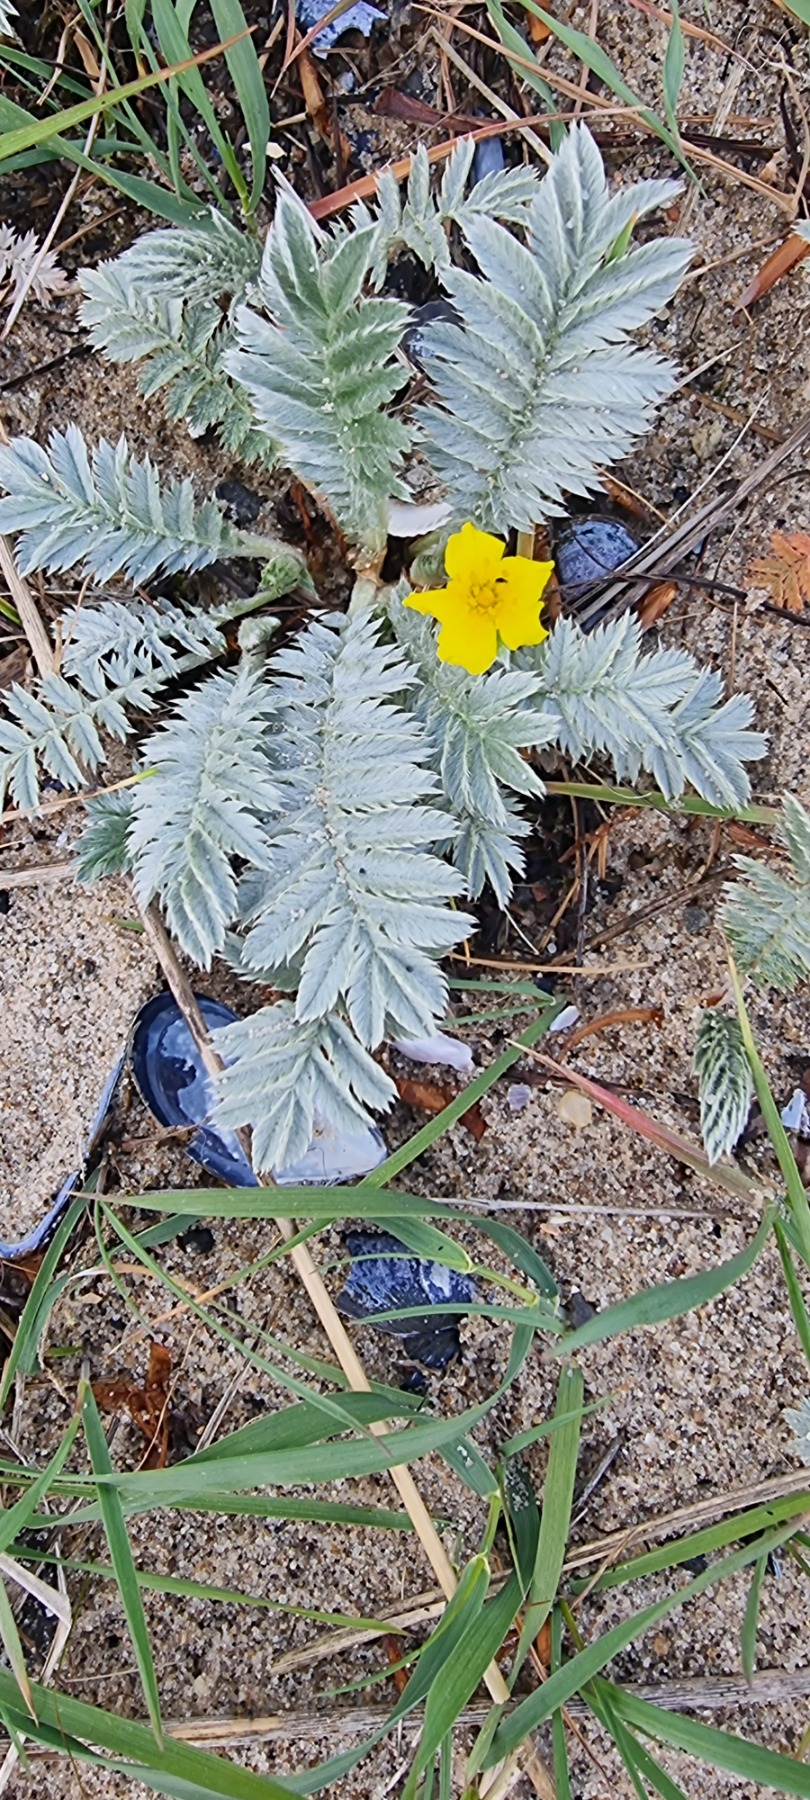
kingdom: Plantae
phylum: Tracheophyta
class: Magnoliopsida
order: Rosales
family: Rosaceae
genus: Argentina
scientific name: Argentina anserina
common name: Gåsepotentil
